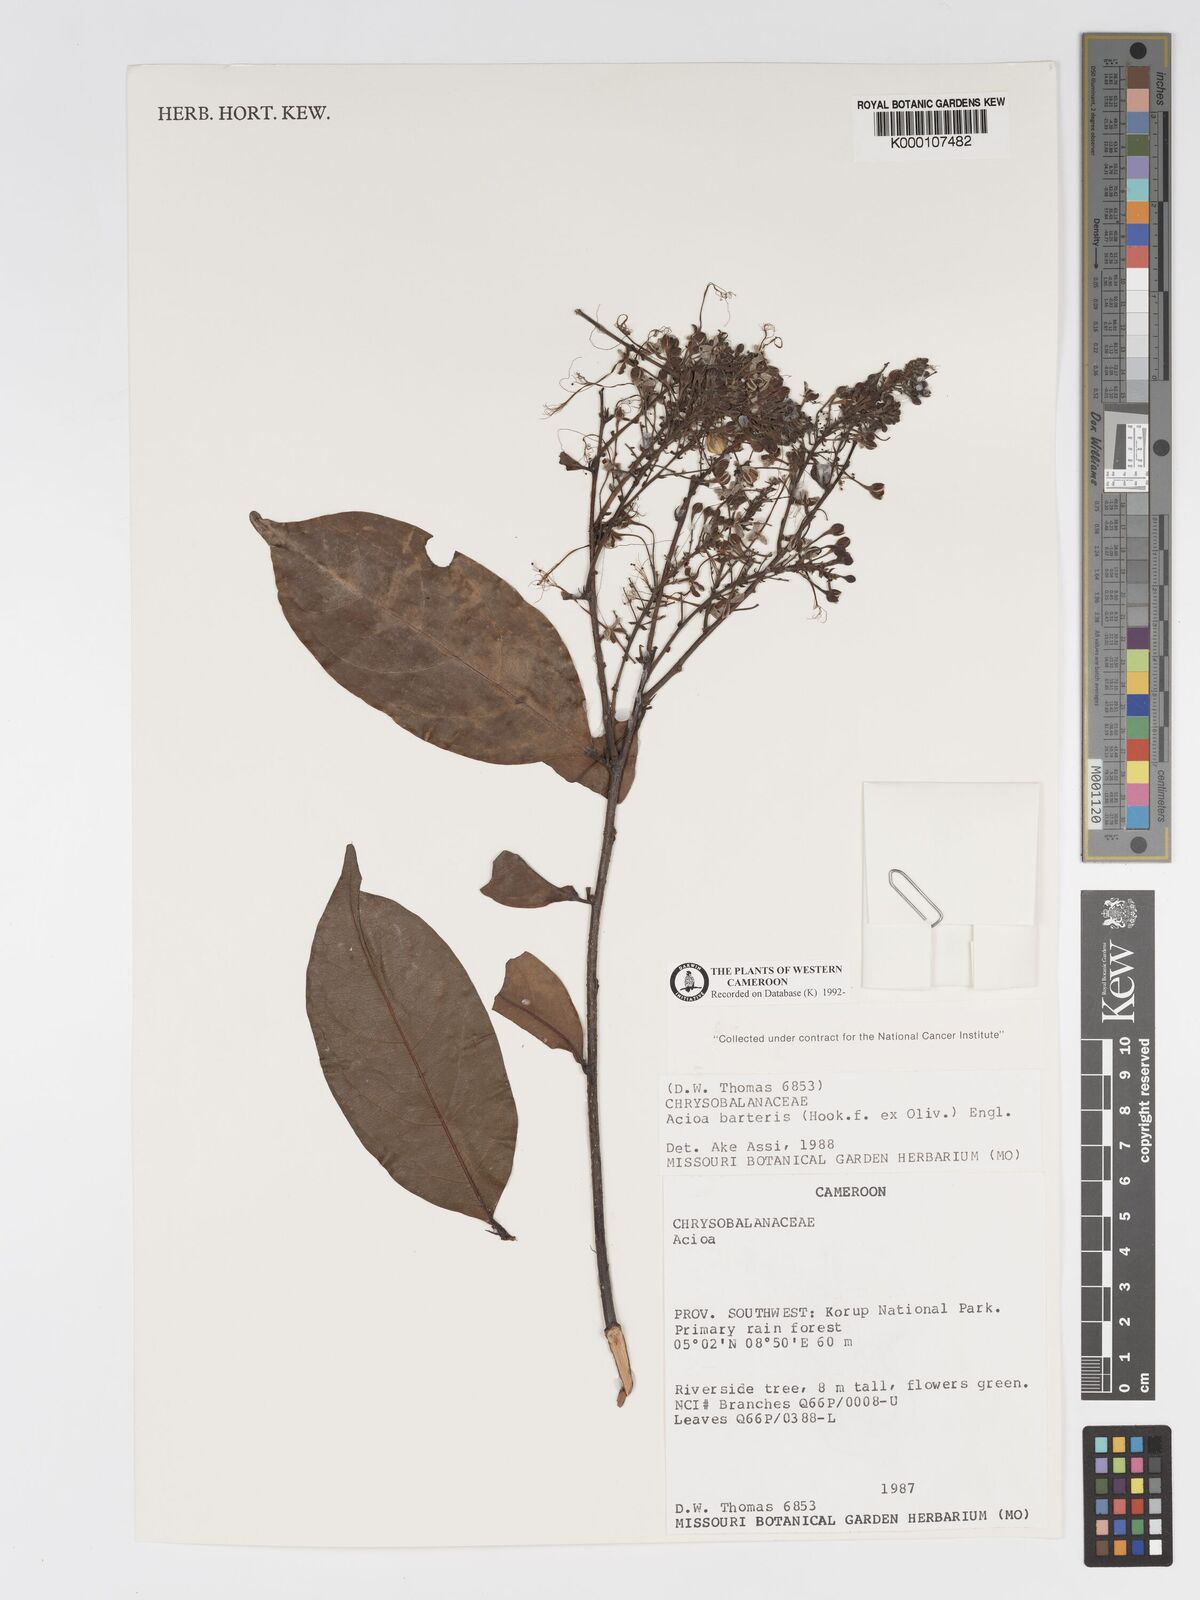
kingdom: Plantae
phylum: Tracheophyta
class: Magnoliopsida
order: Malpighiales
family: Chrysobalanaceae
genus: Dactyladenia
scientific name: Dactyladenia barteri
